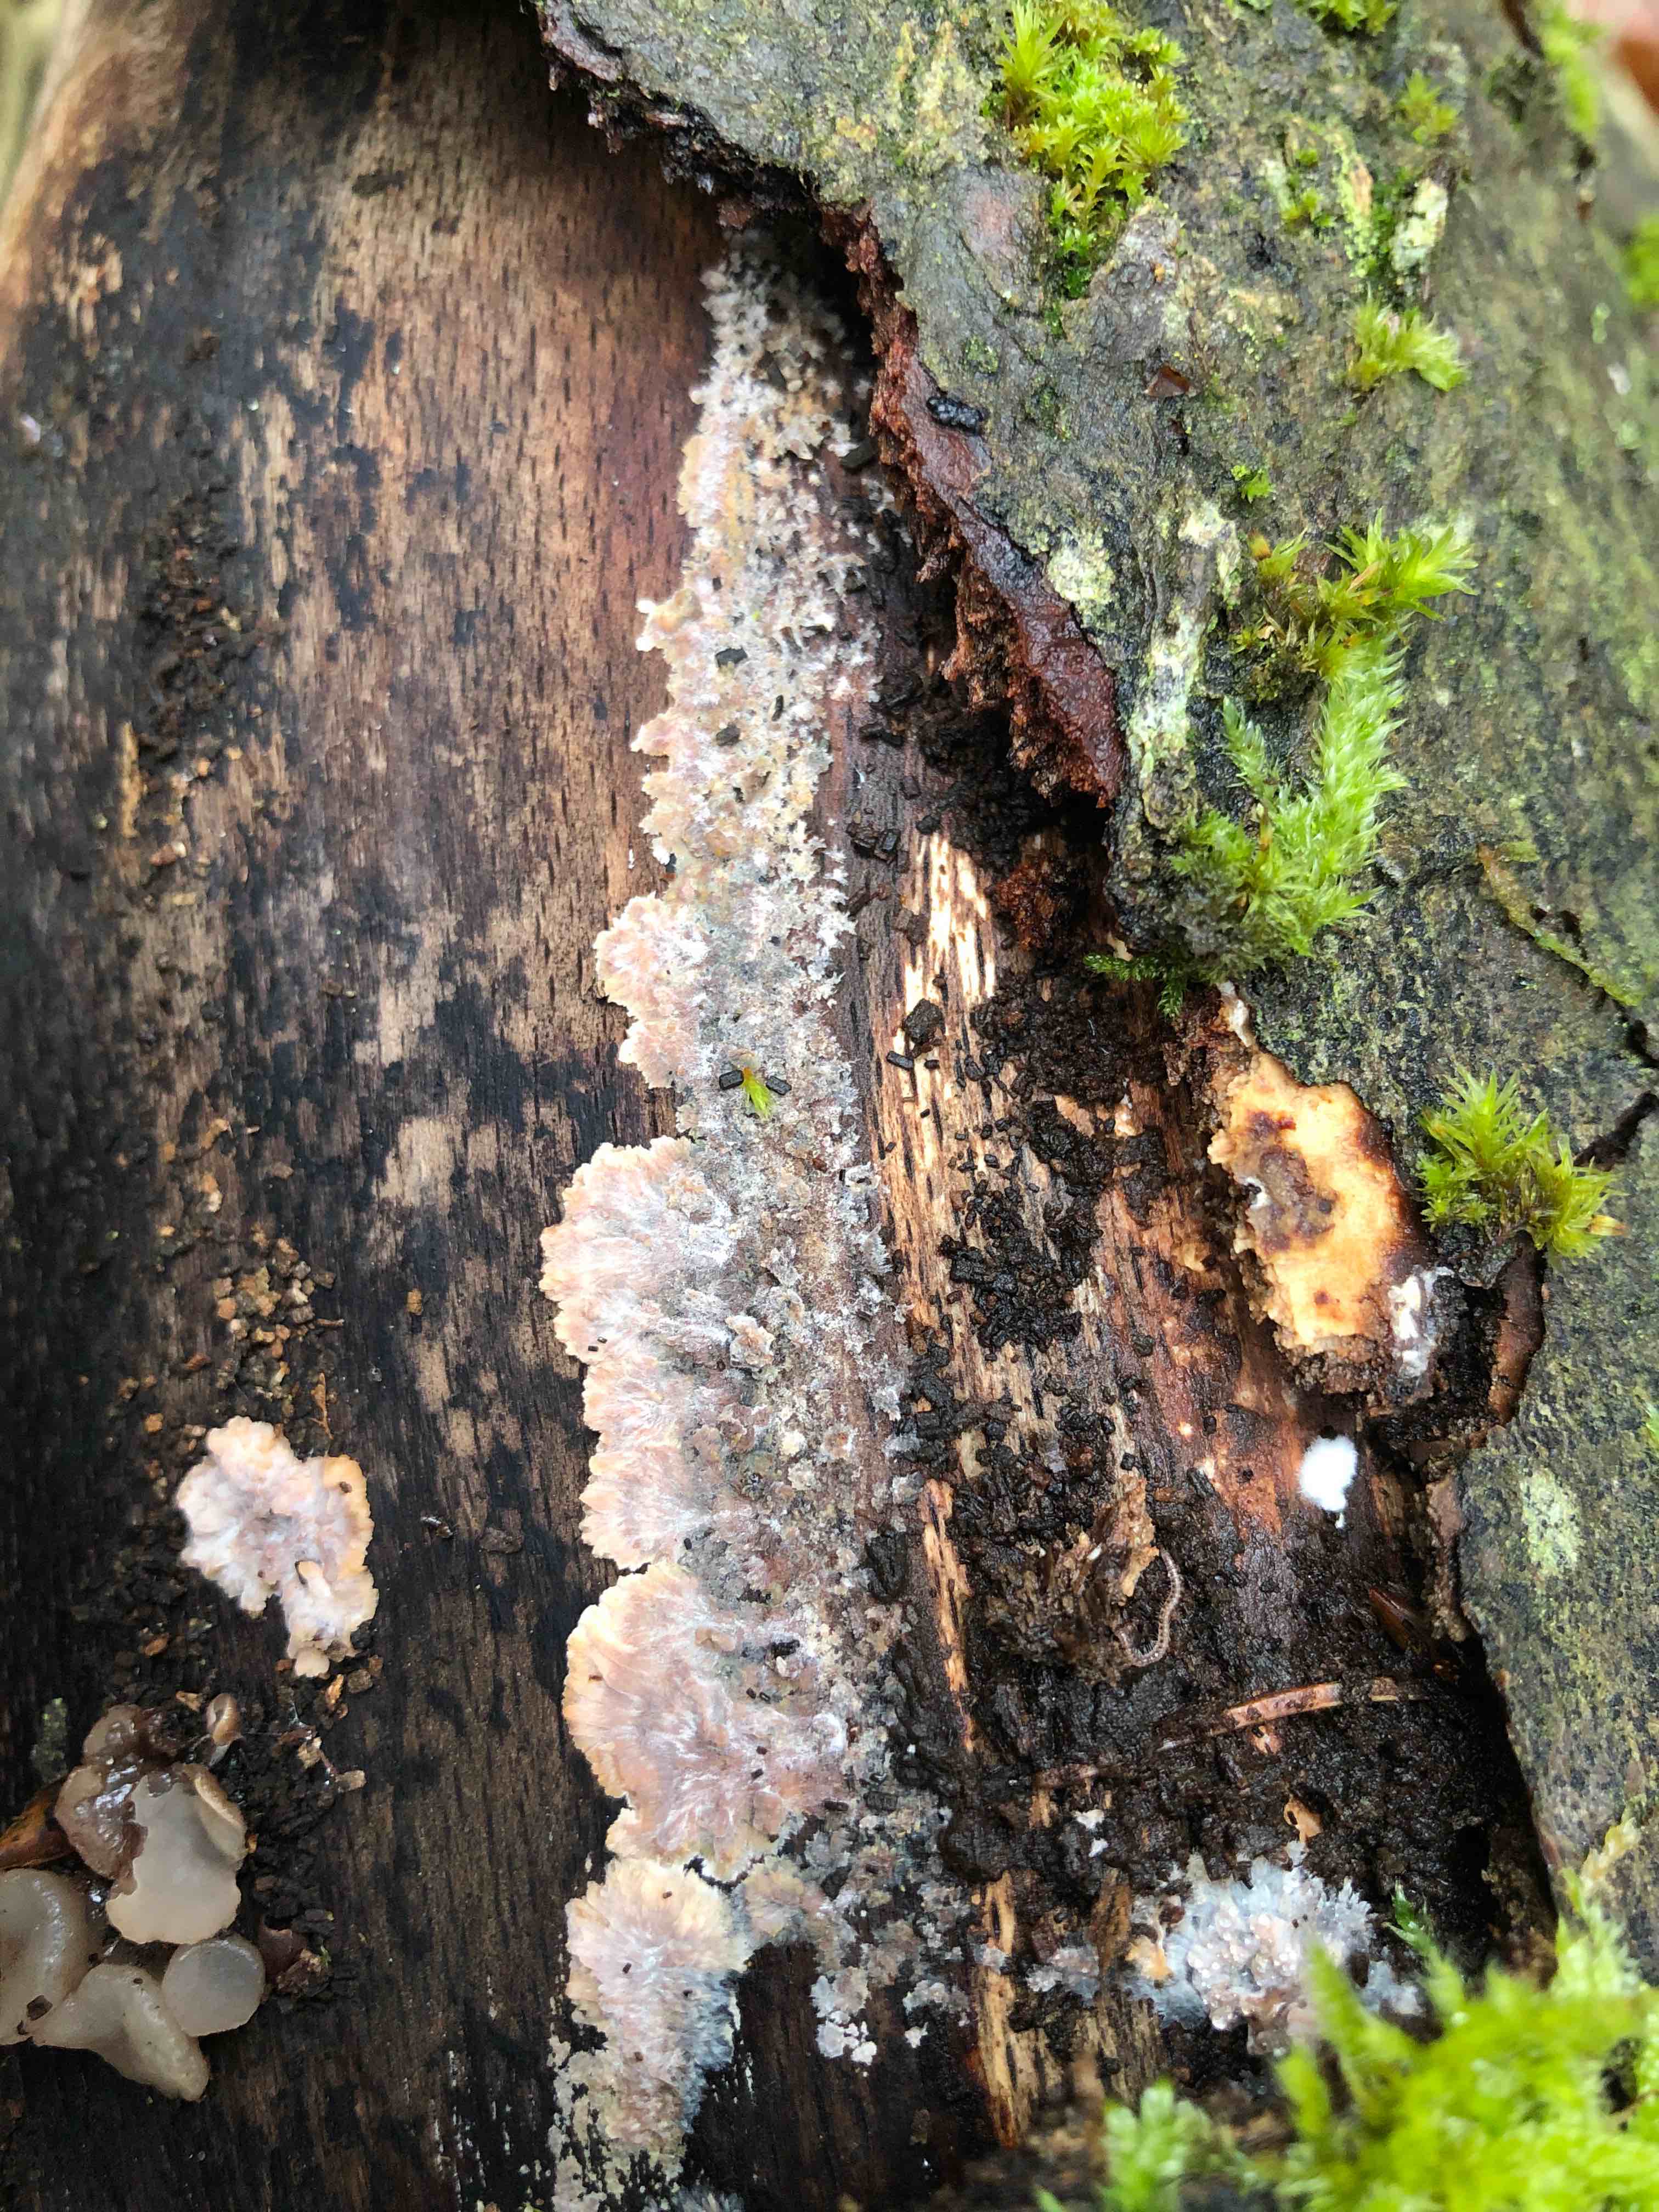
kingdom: Fungi
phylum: Basidiomycota
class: Agaricomycetes
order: Polyporales
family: Meruliaceae
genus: Phlebia
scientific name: Phlebia radiata
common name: stråle-åresvamp
